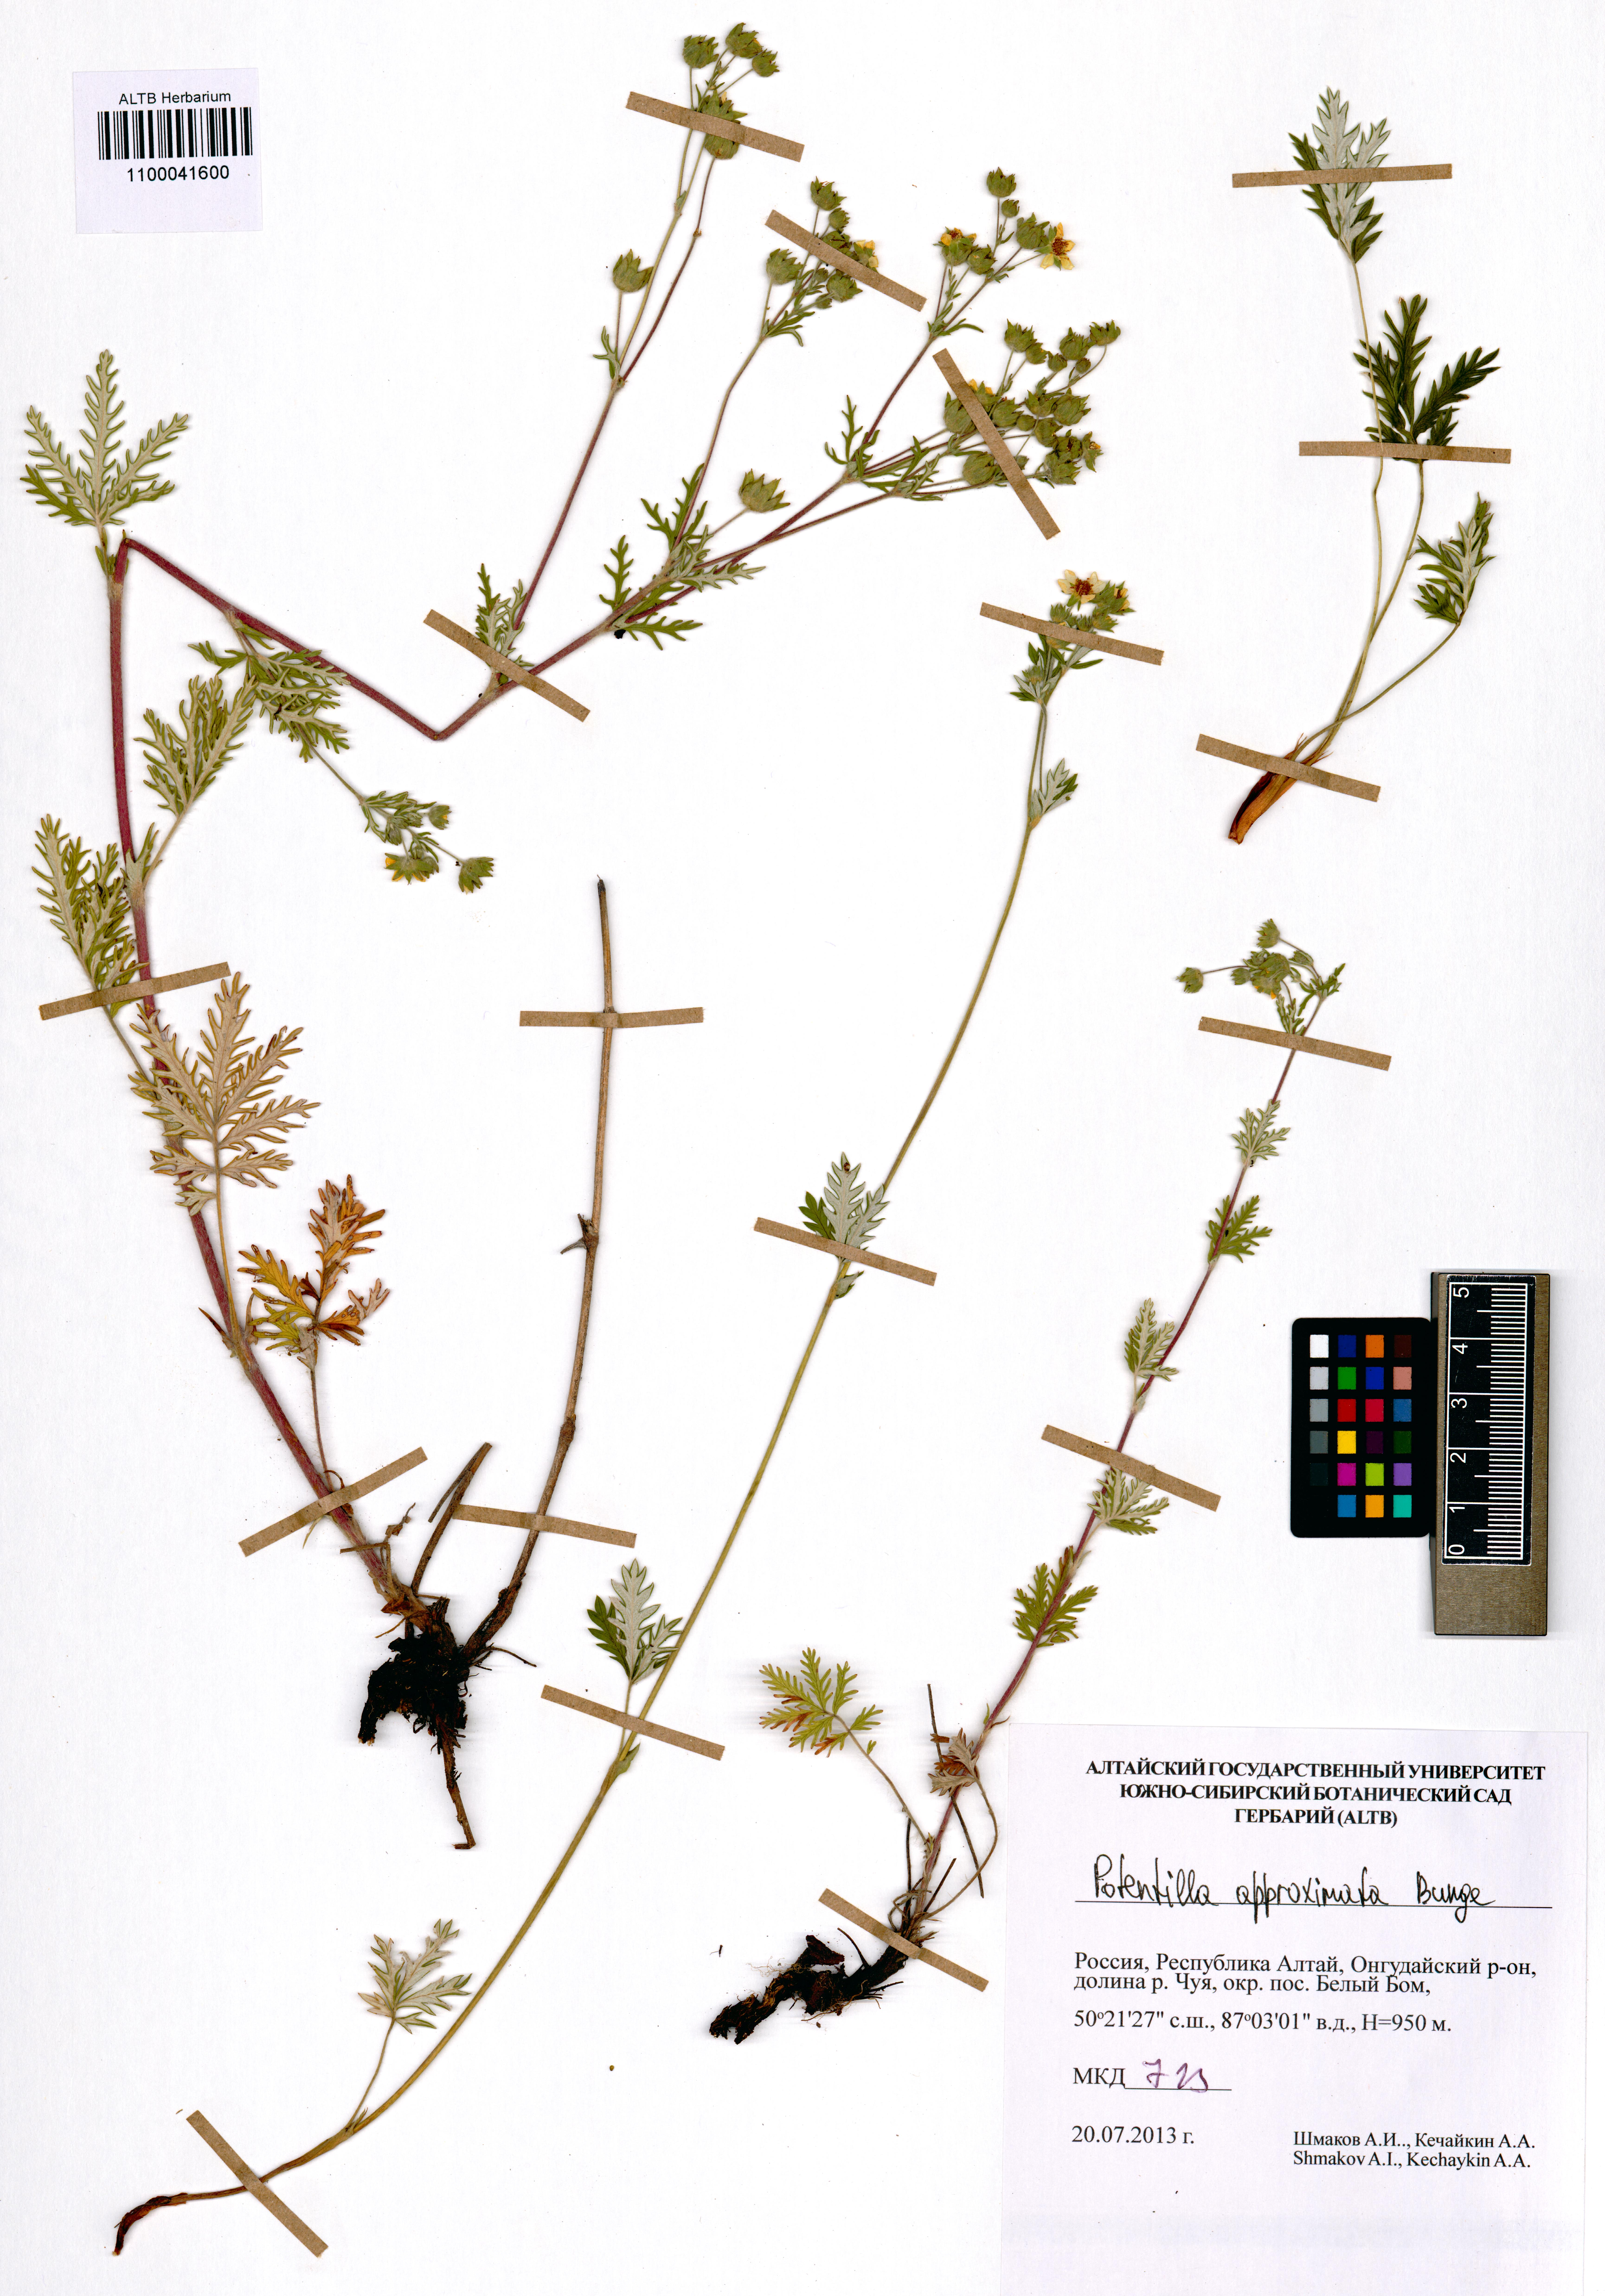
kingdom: Plantae
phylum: Tracheophyta
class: Magnoliopsida
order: Rosales
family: Rosaceae
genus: Potentilla
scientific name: Potentilla conferta
